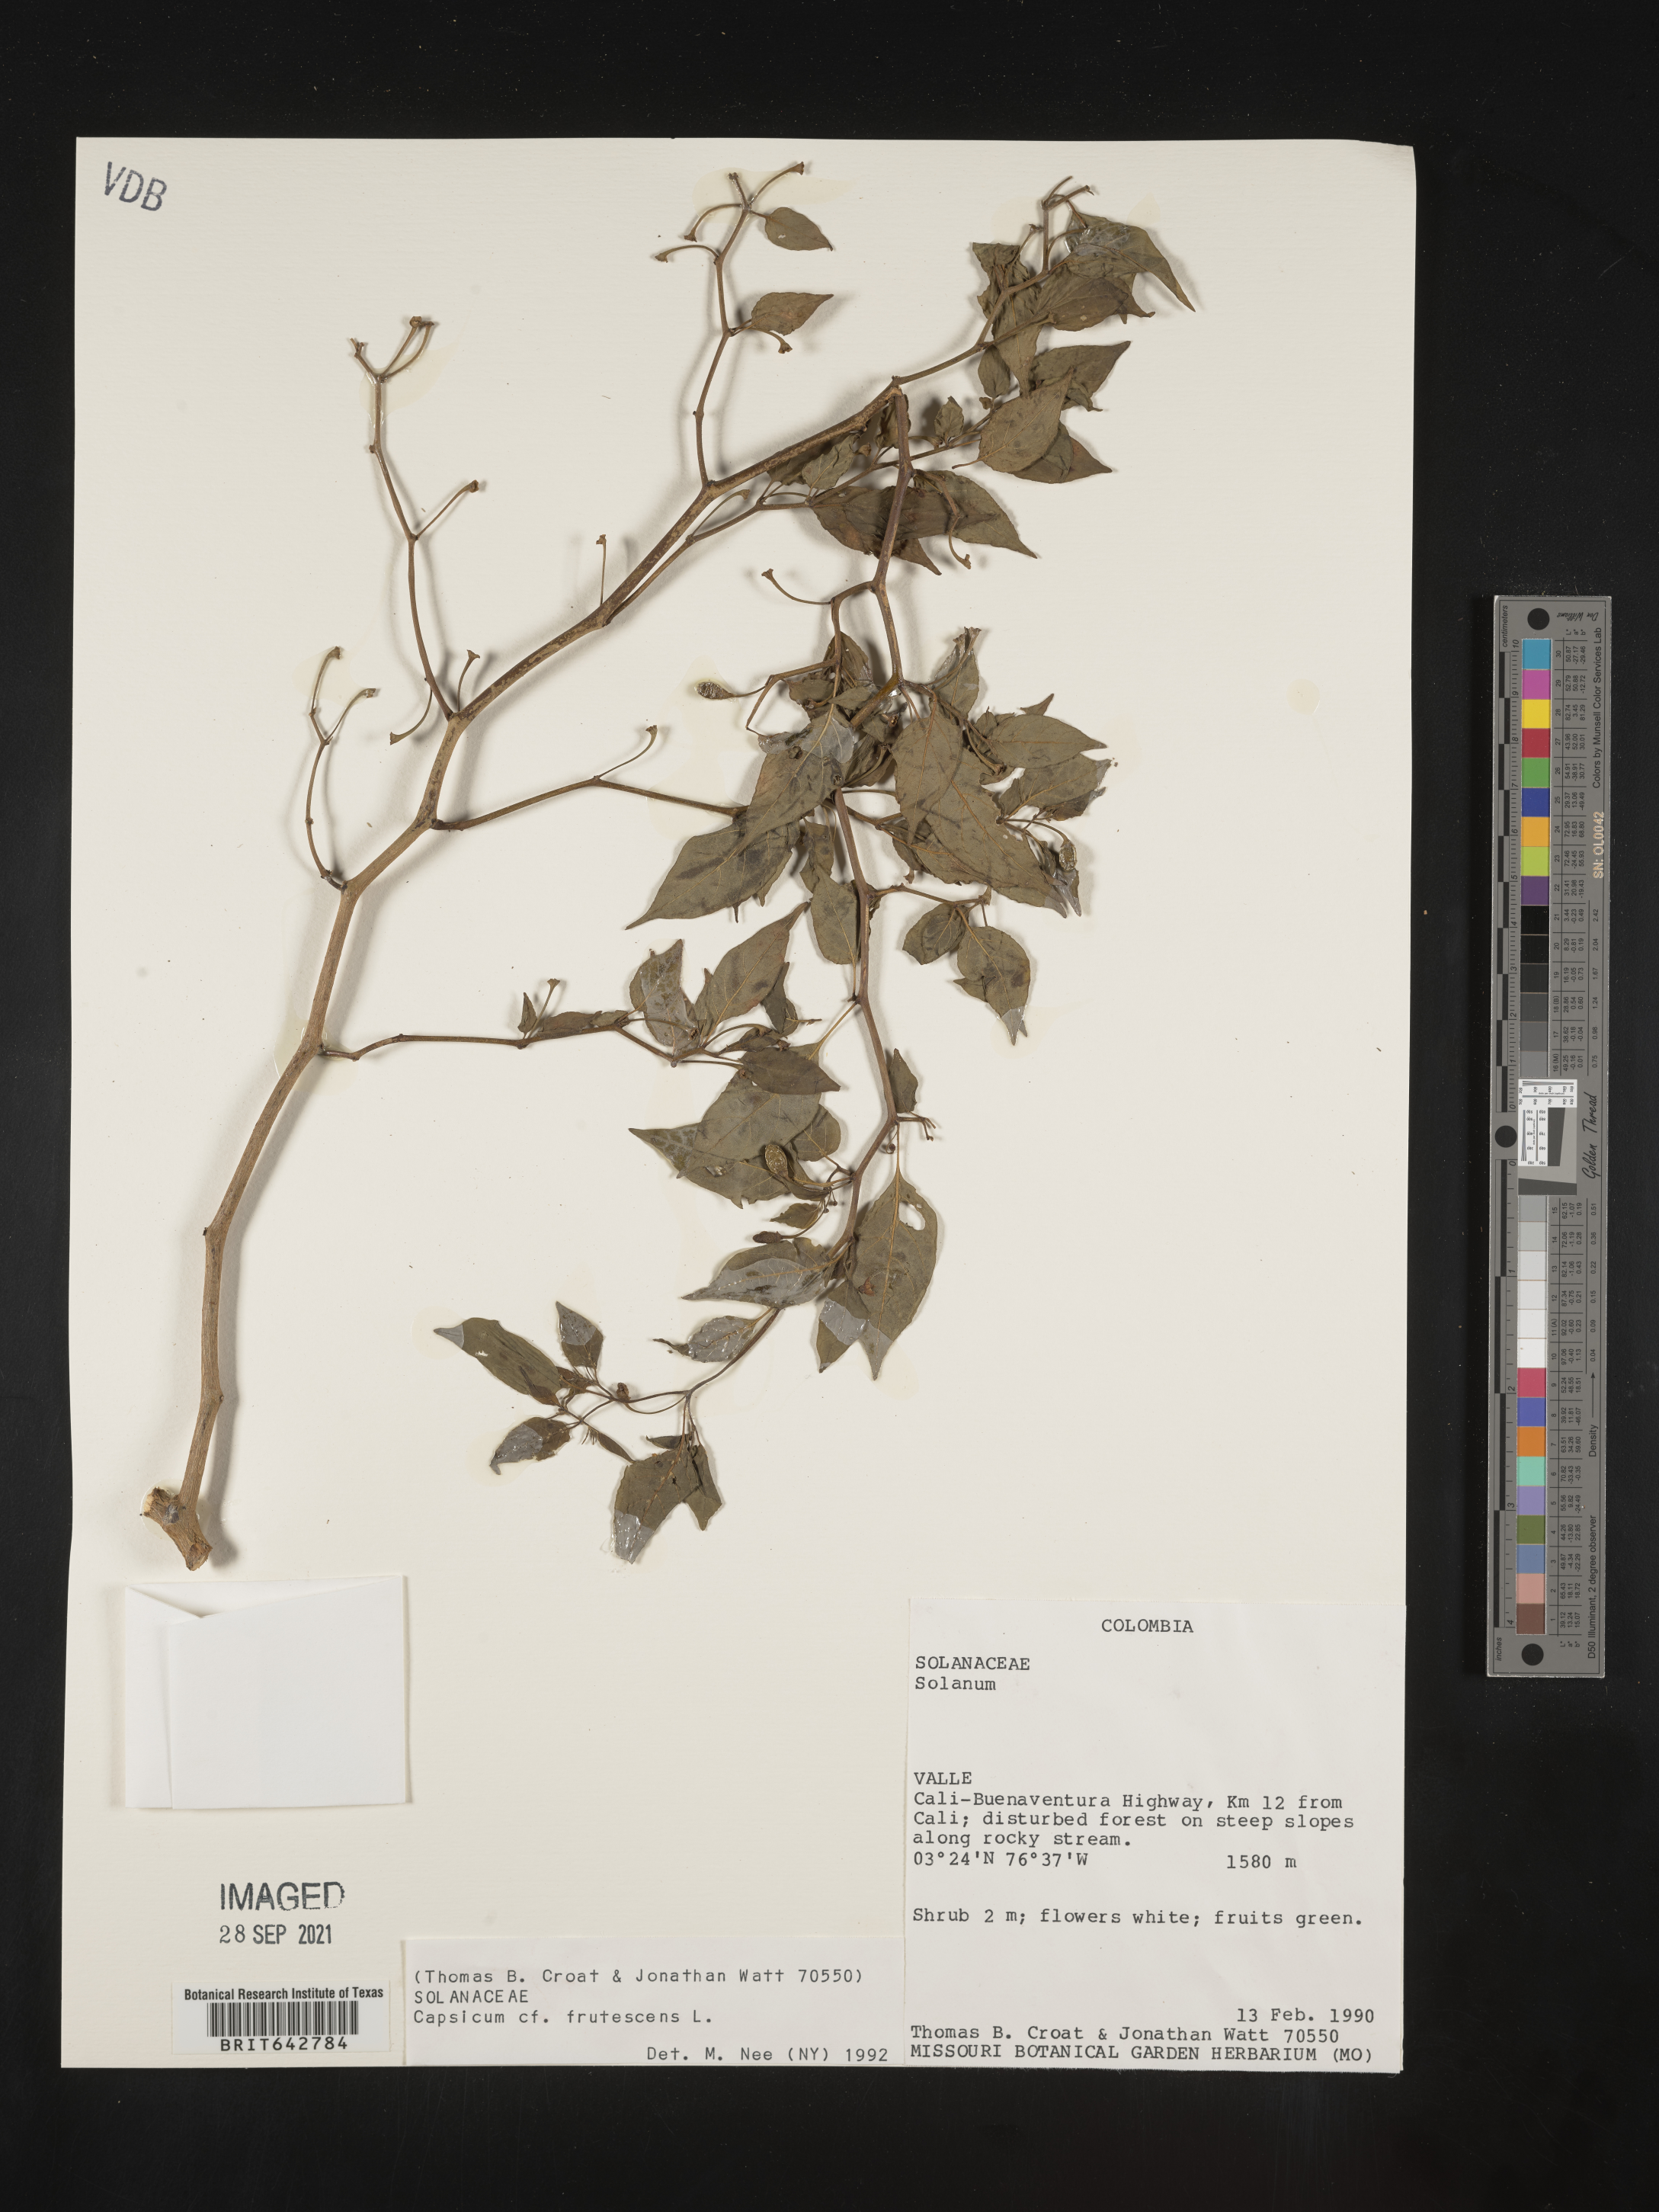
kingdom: Plantae
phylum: Tracheophyta
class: Magnoliopsida
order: Solanales
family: Solanaceae
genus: Capsicum
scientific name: Capsicum
